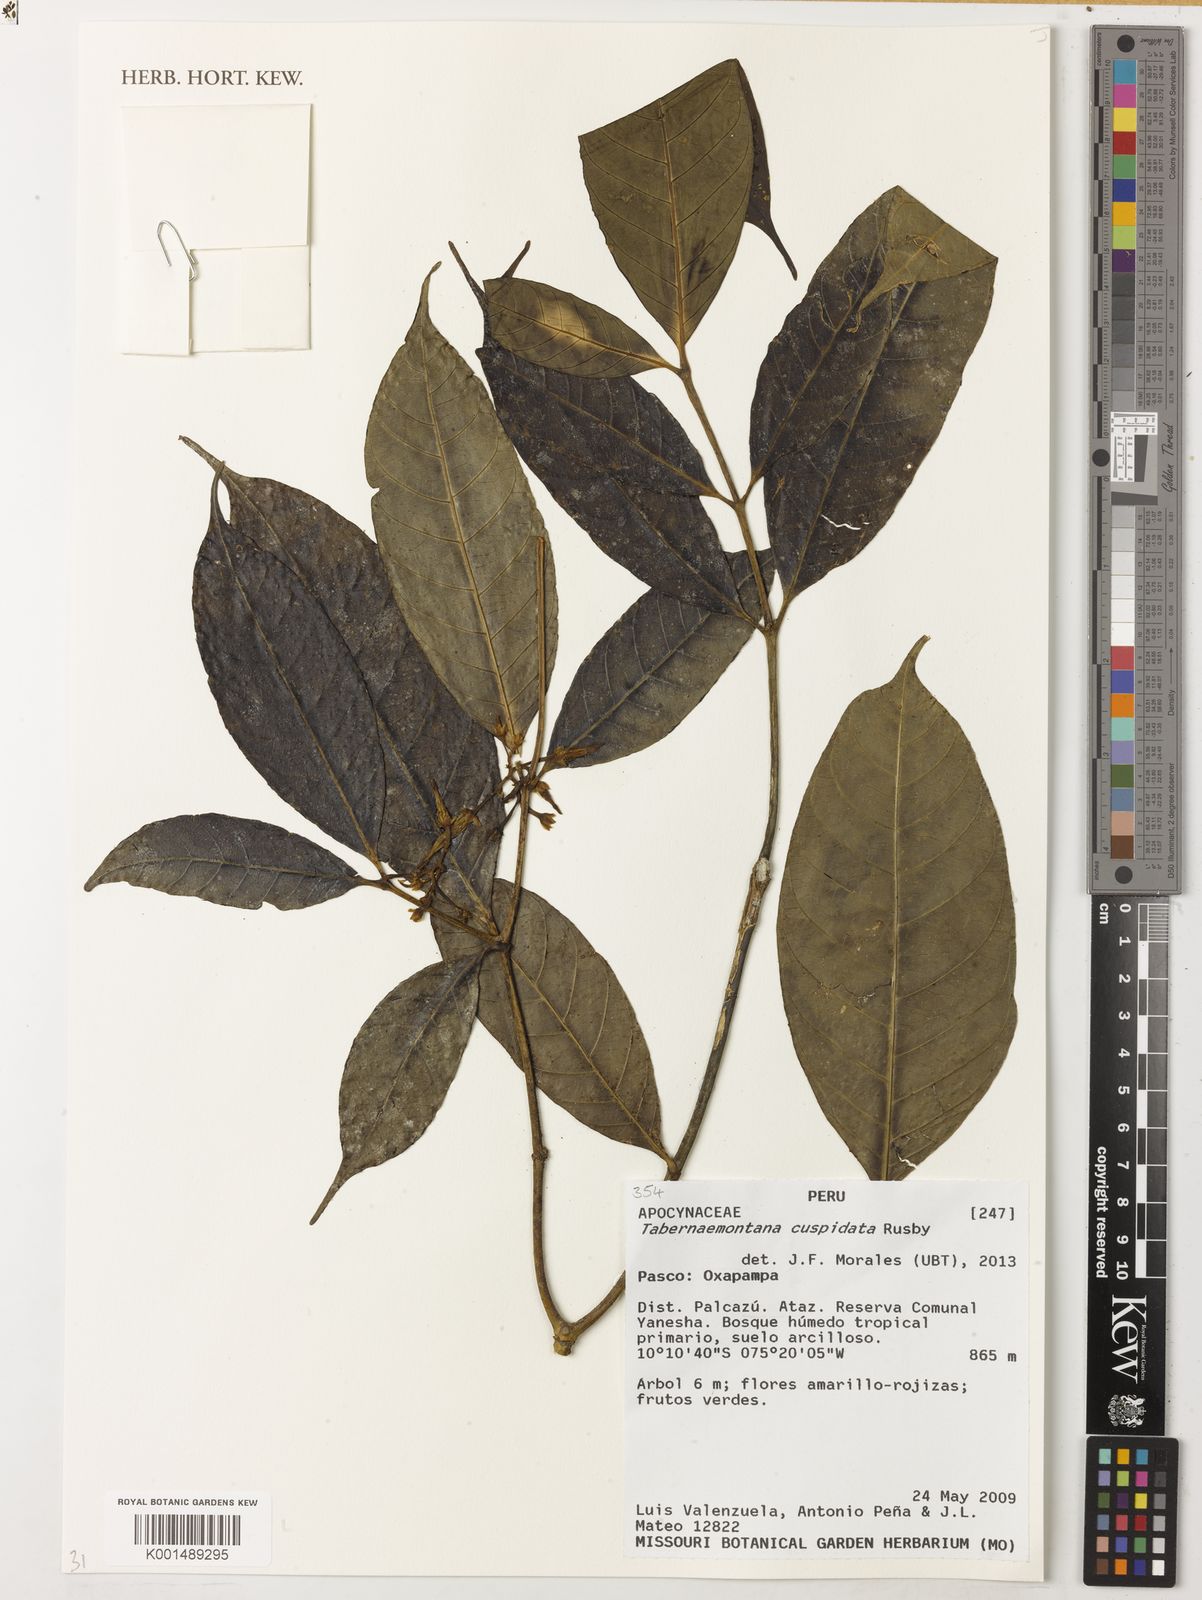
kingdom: Plantae
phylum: Tracheophyta
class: Magnoliopsida
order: Gentianales
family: Apocynaceae
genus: Tabernaemontana
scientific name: Tabernaemontana cuspidata
